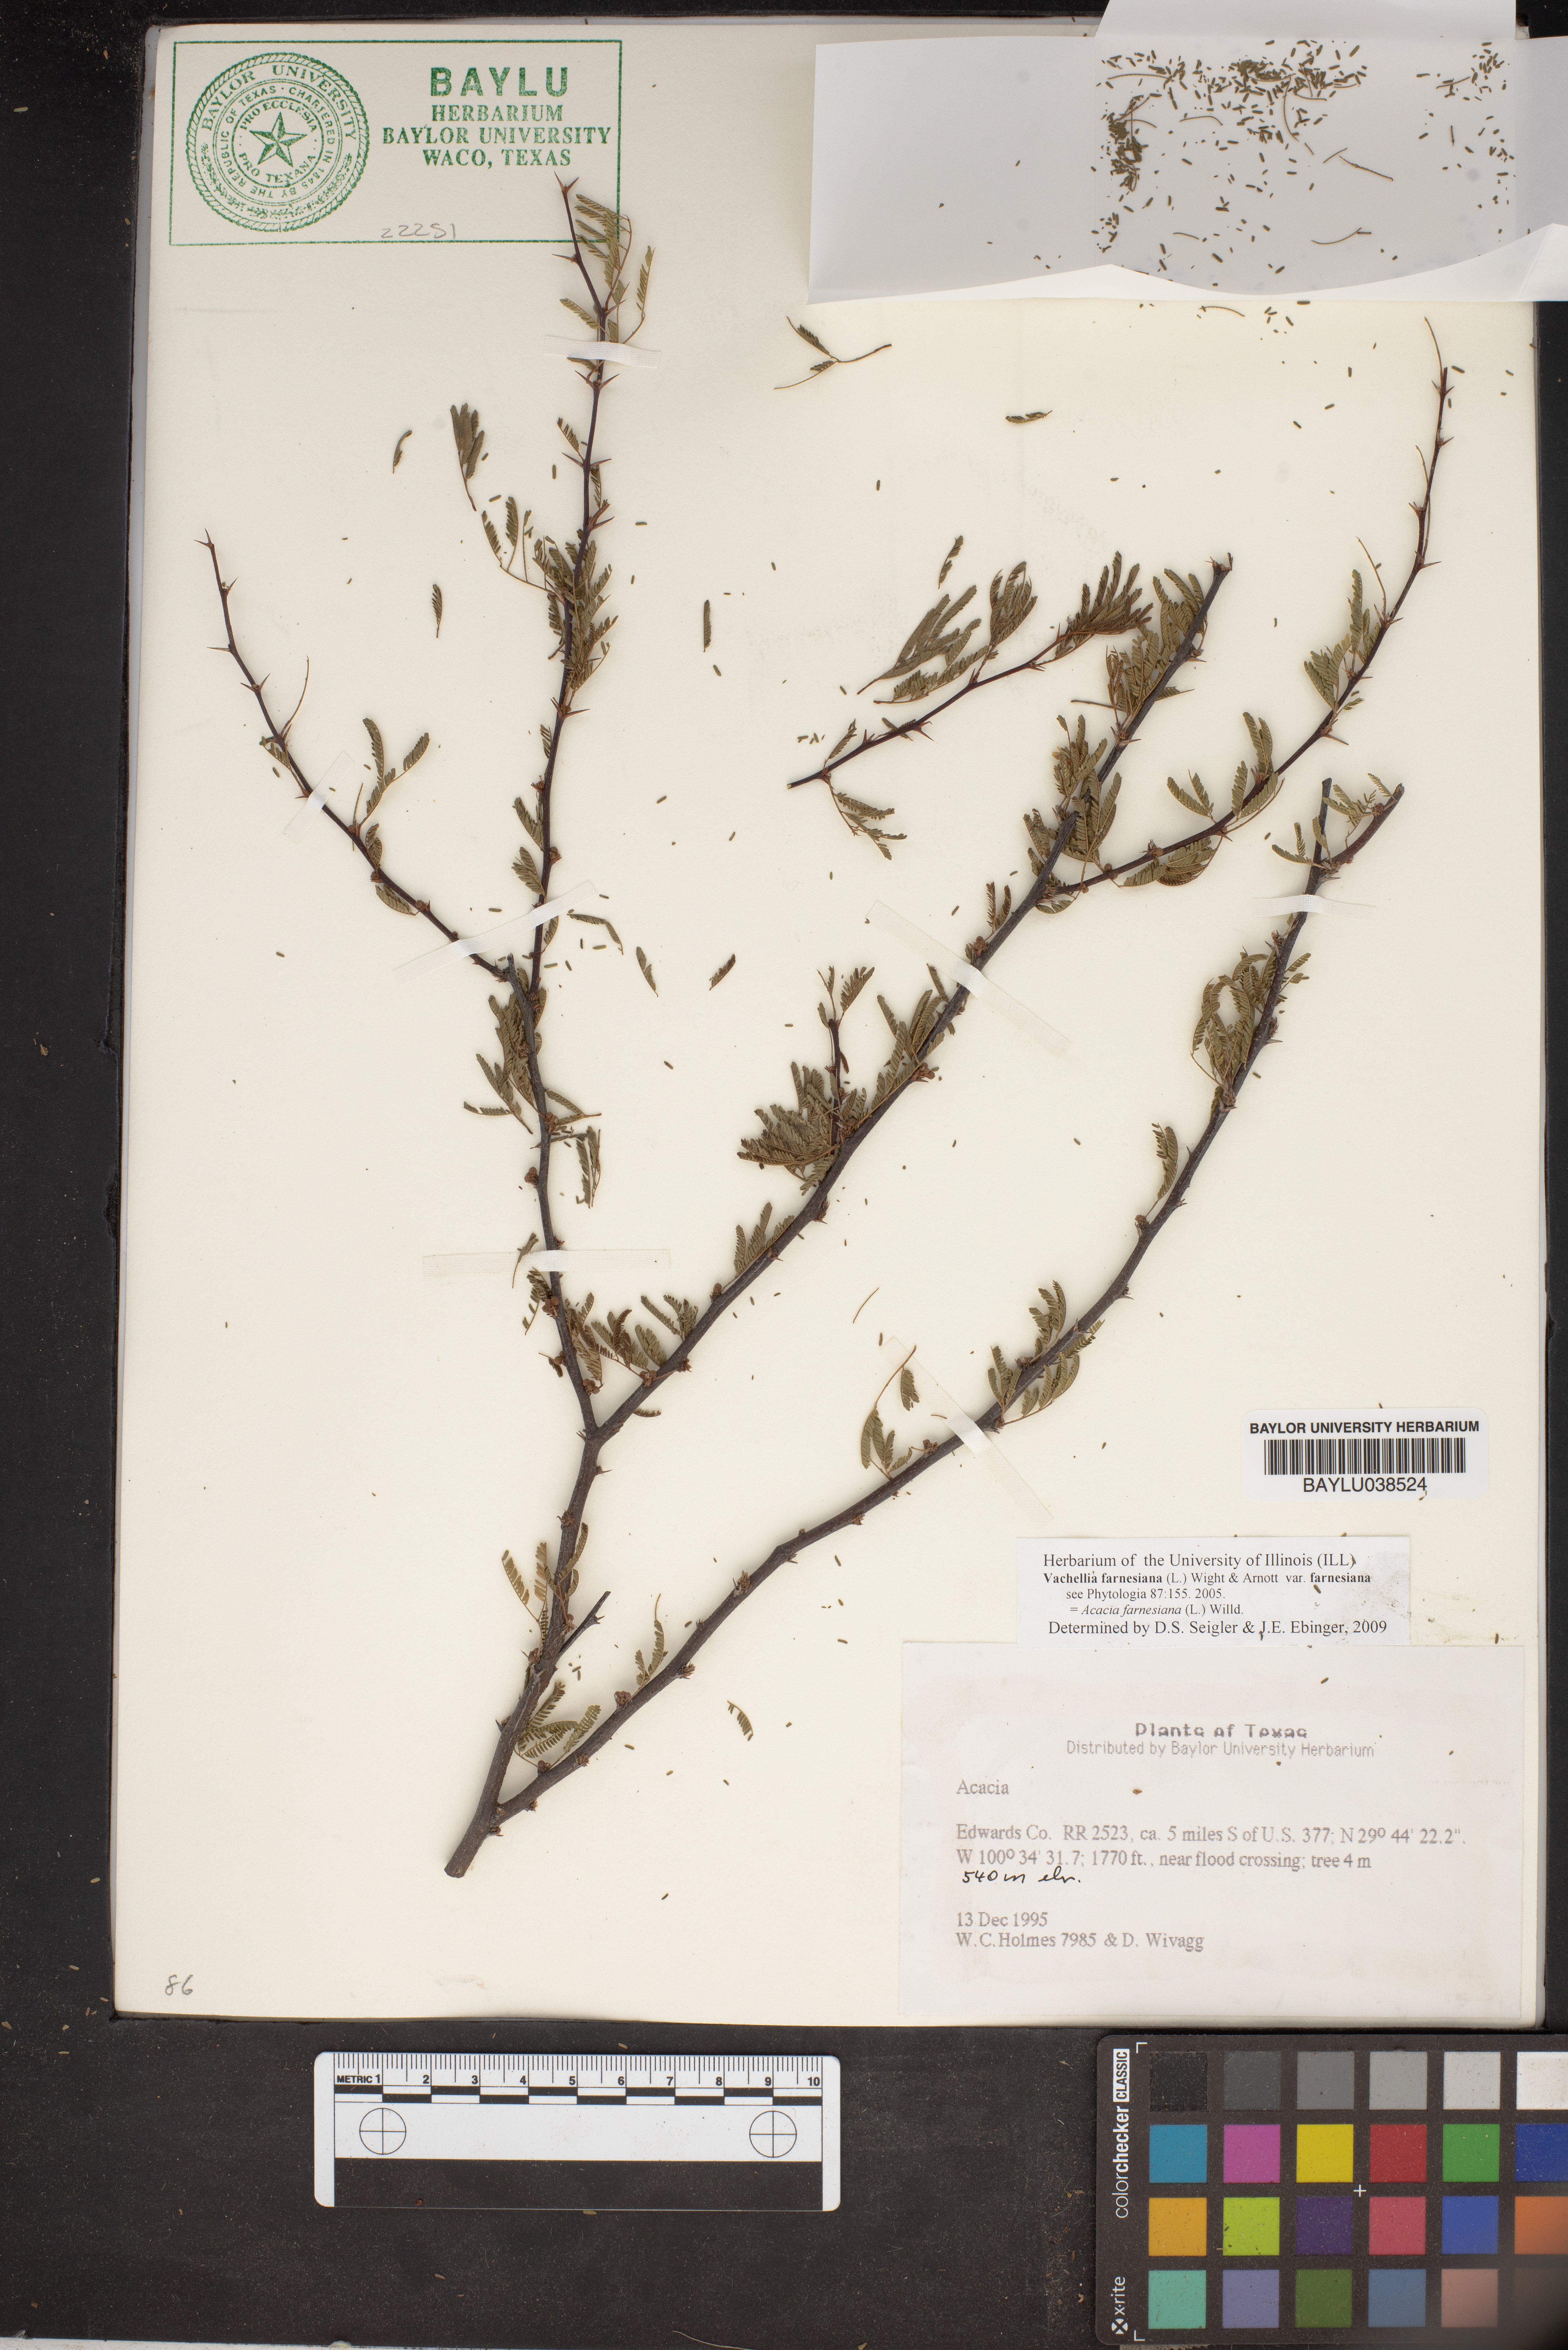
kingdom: Plantae
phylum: Tracheophyta
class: Magnoliopsida
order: Fabales
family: Fabaceae
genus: Acacia
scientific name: Acacia
